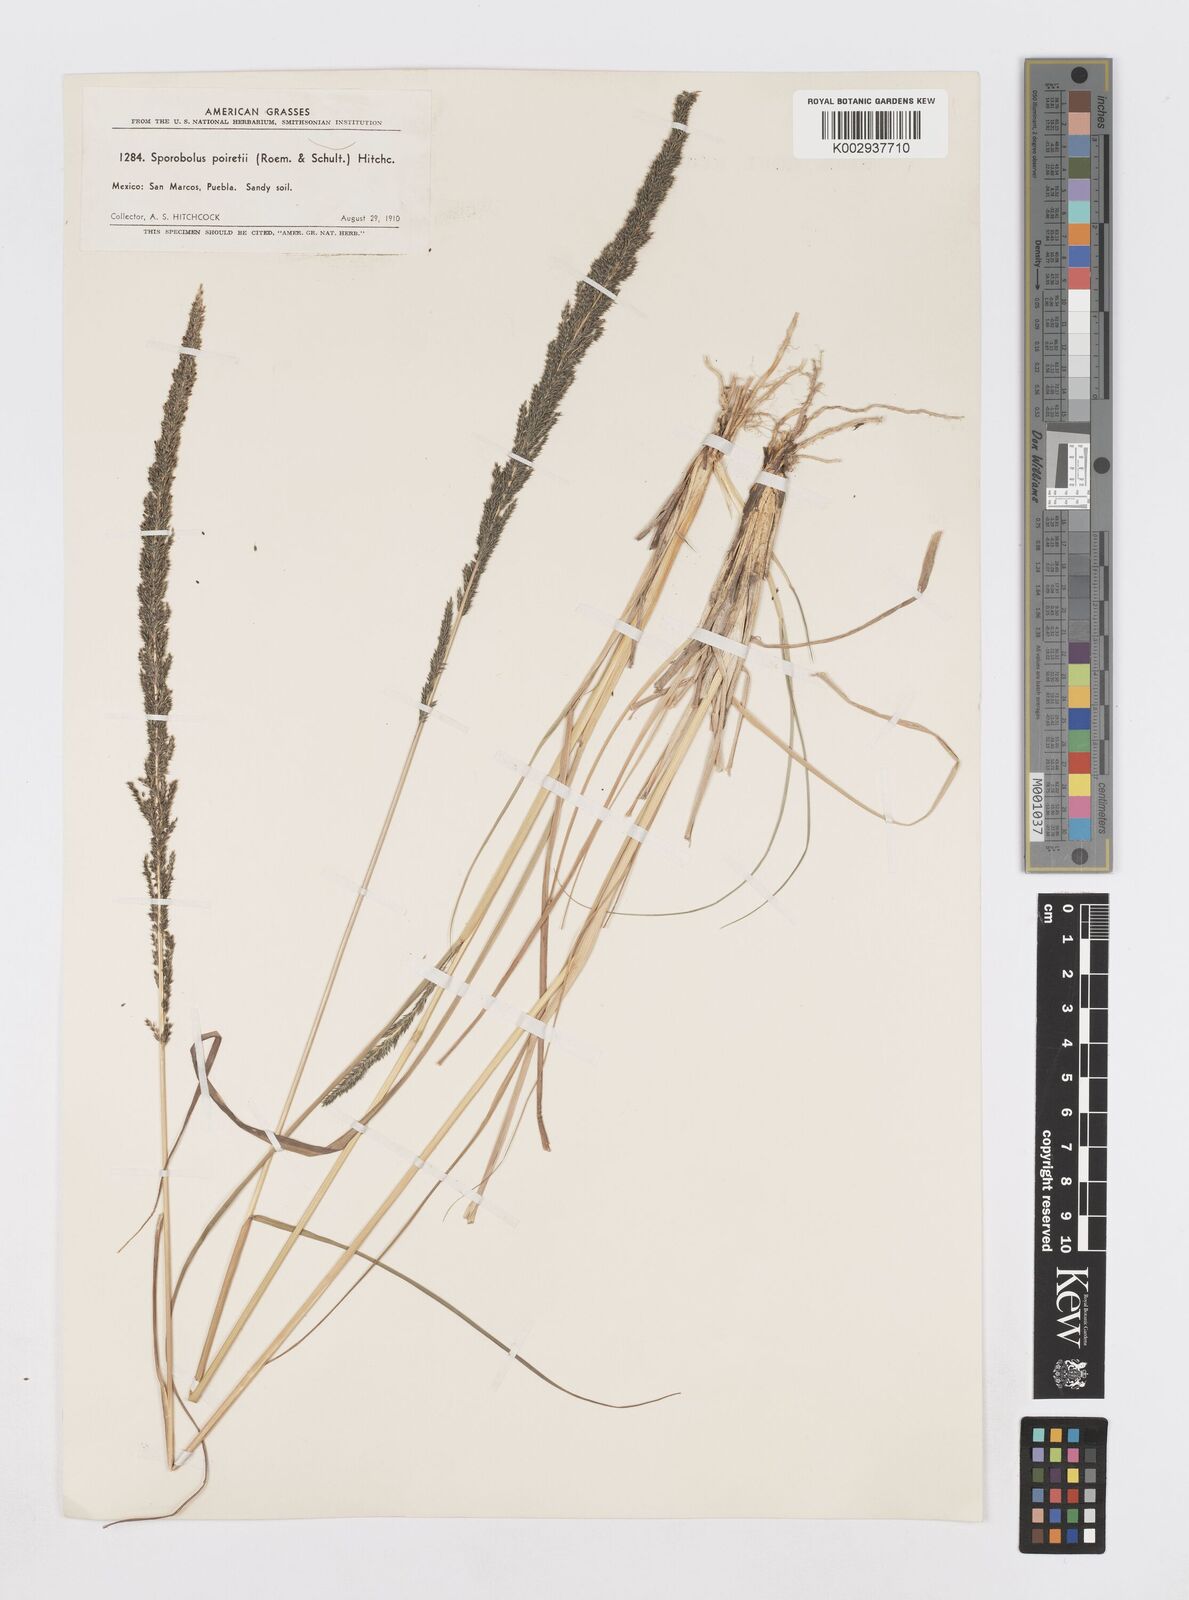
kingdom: Plantae
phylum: Tracheophyta
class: Liliopsida
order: Poales
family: Poaceae
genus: Sporobolus
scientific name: Sporobolus junceus
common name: Lizard grass
